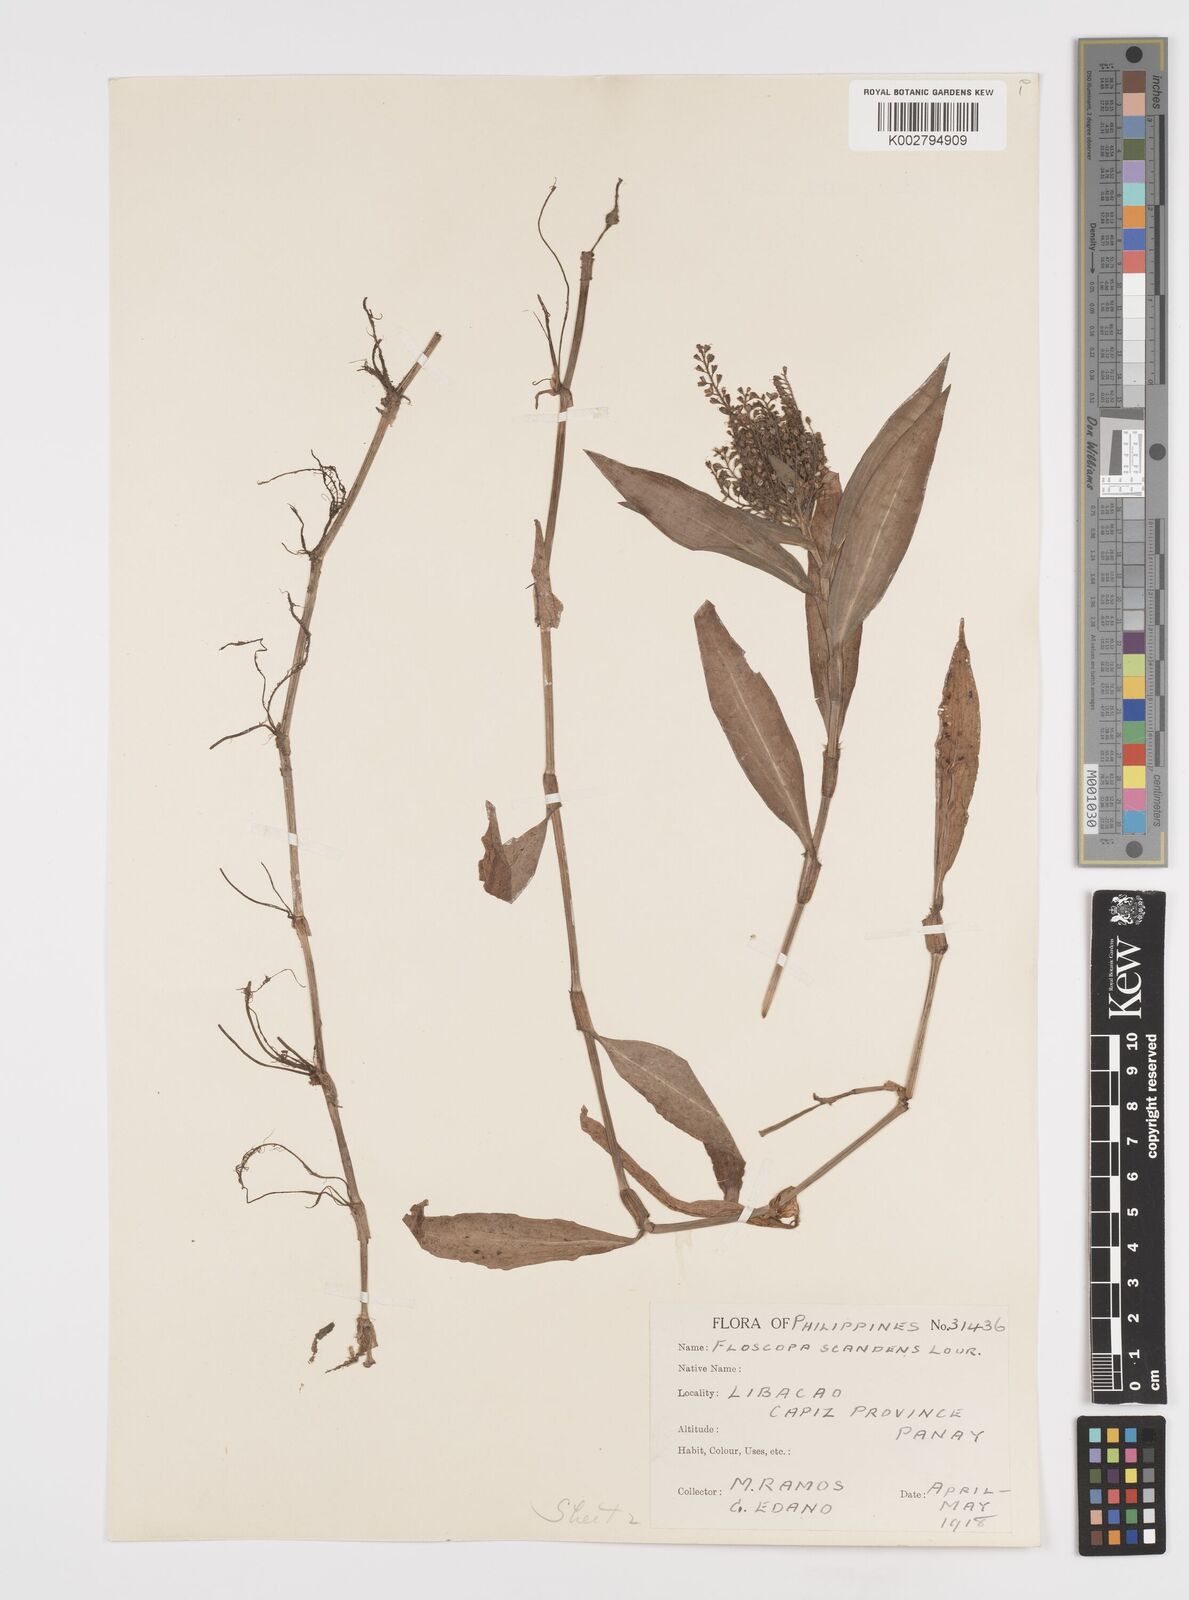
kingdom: Plantae
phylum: Tracheophyta
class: Liliopsida
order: Commelinales
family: Commelinaceae
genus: Floscopa
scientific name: Floscopa scandens
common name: Climbing flower cup
